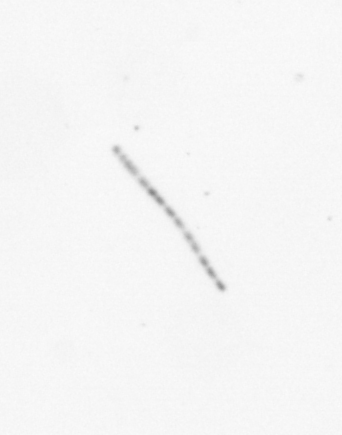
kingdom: Chromista
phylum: Ochrophyta
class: Bacillariophyceae
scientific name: Bacillariophyceae
